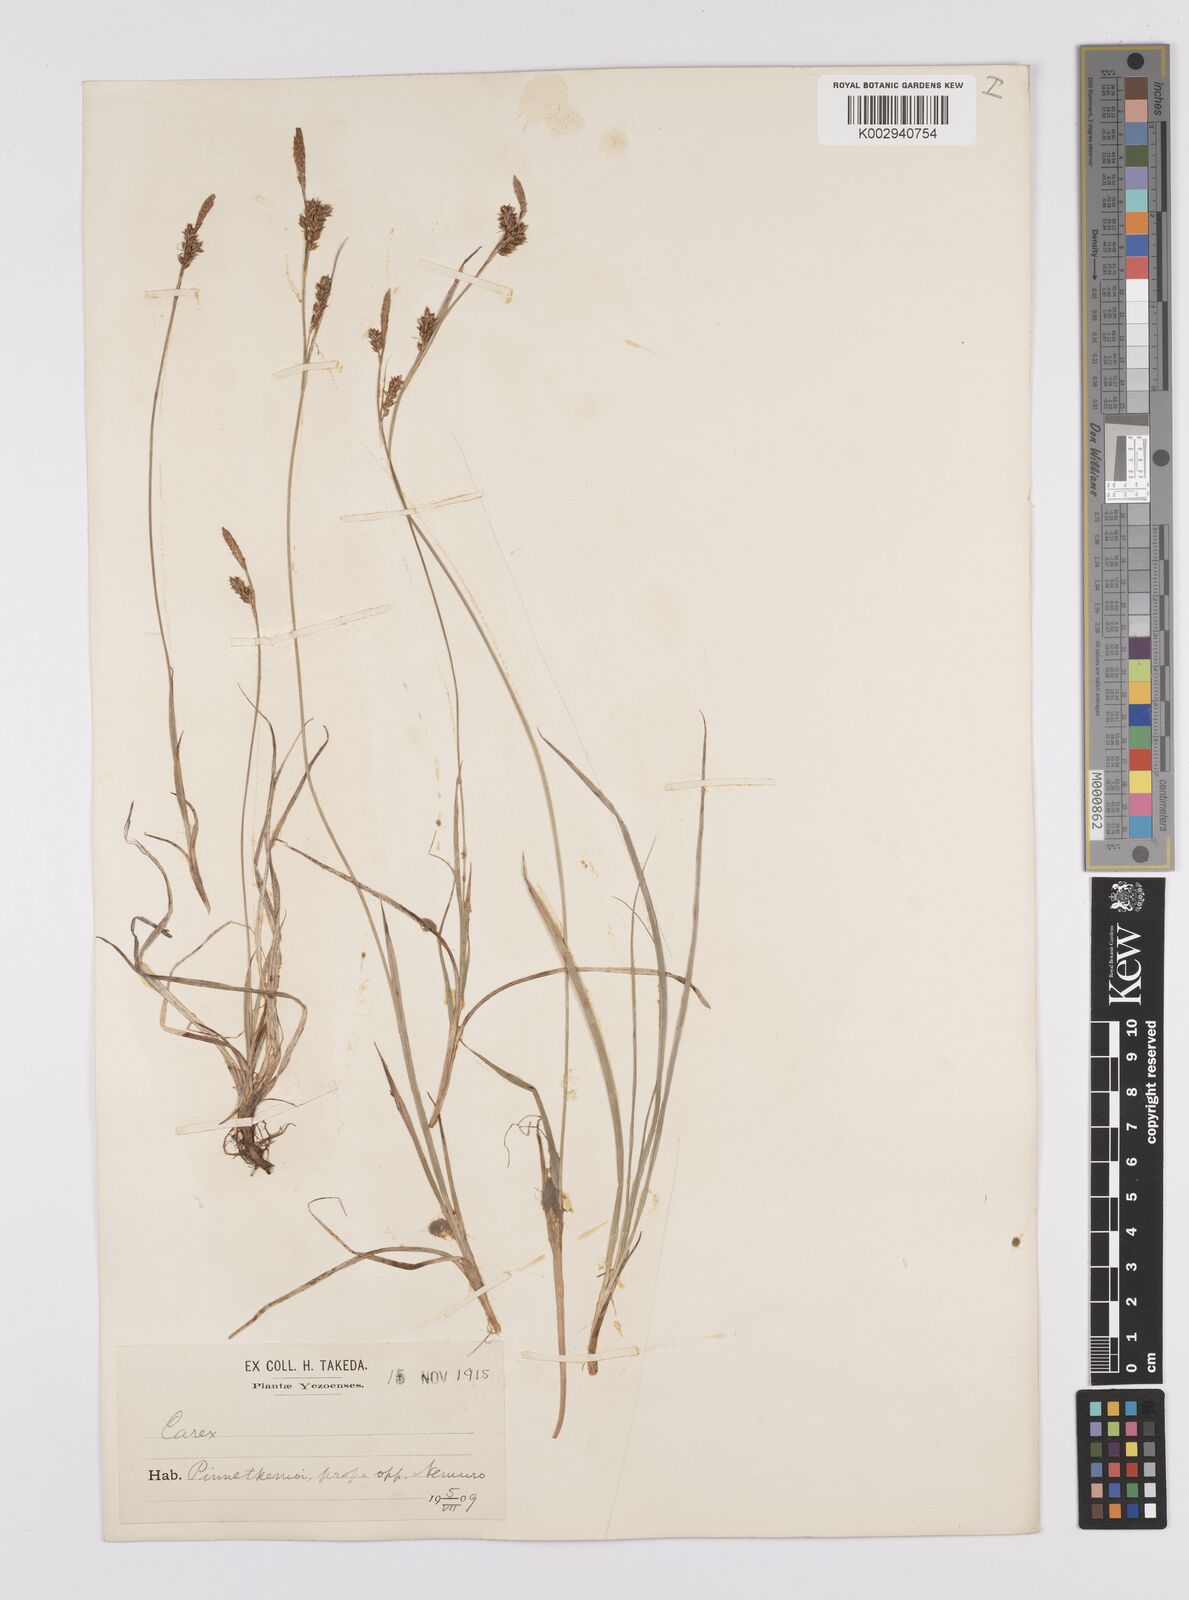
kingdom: Plantae
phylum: Tracheophyta
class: Liliopsida
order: Poales
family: Cyperaceae
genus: Carex
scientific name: Carex umbrosa
